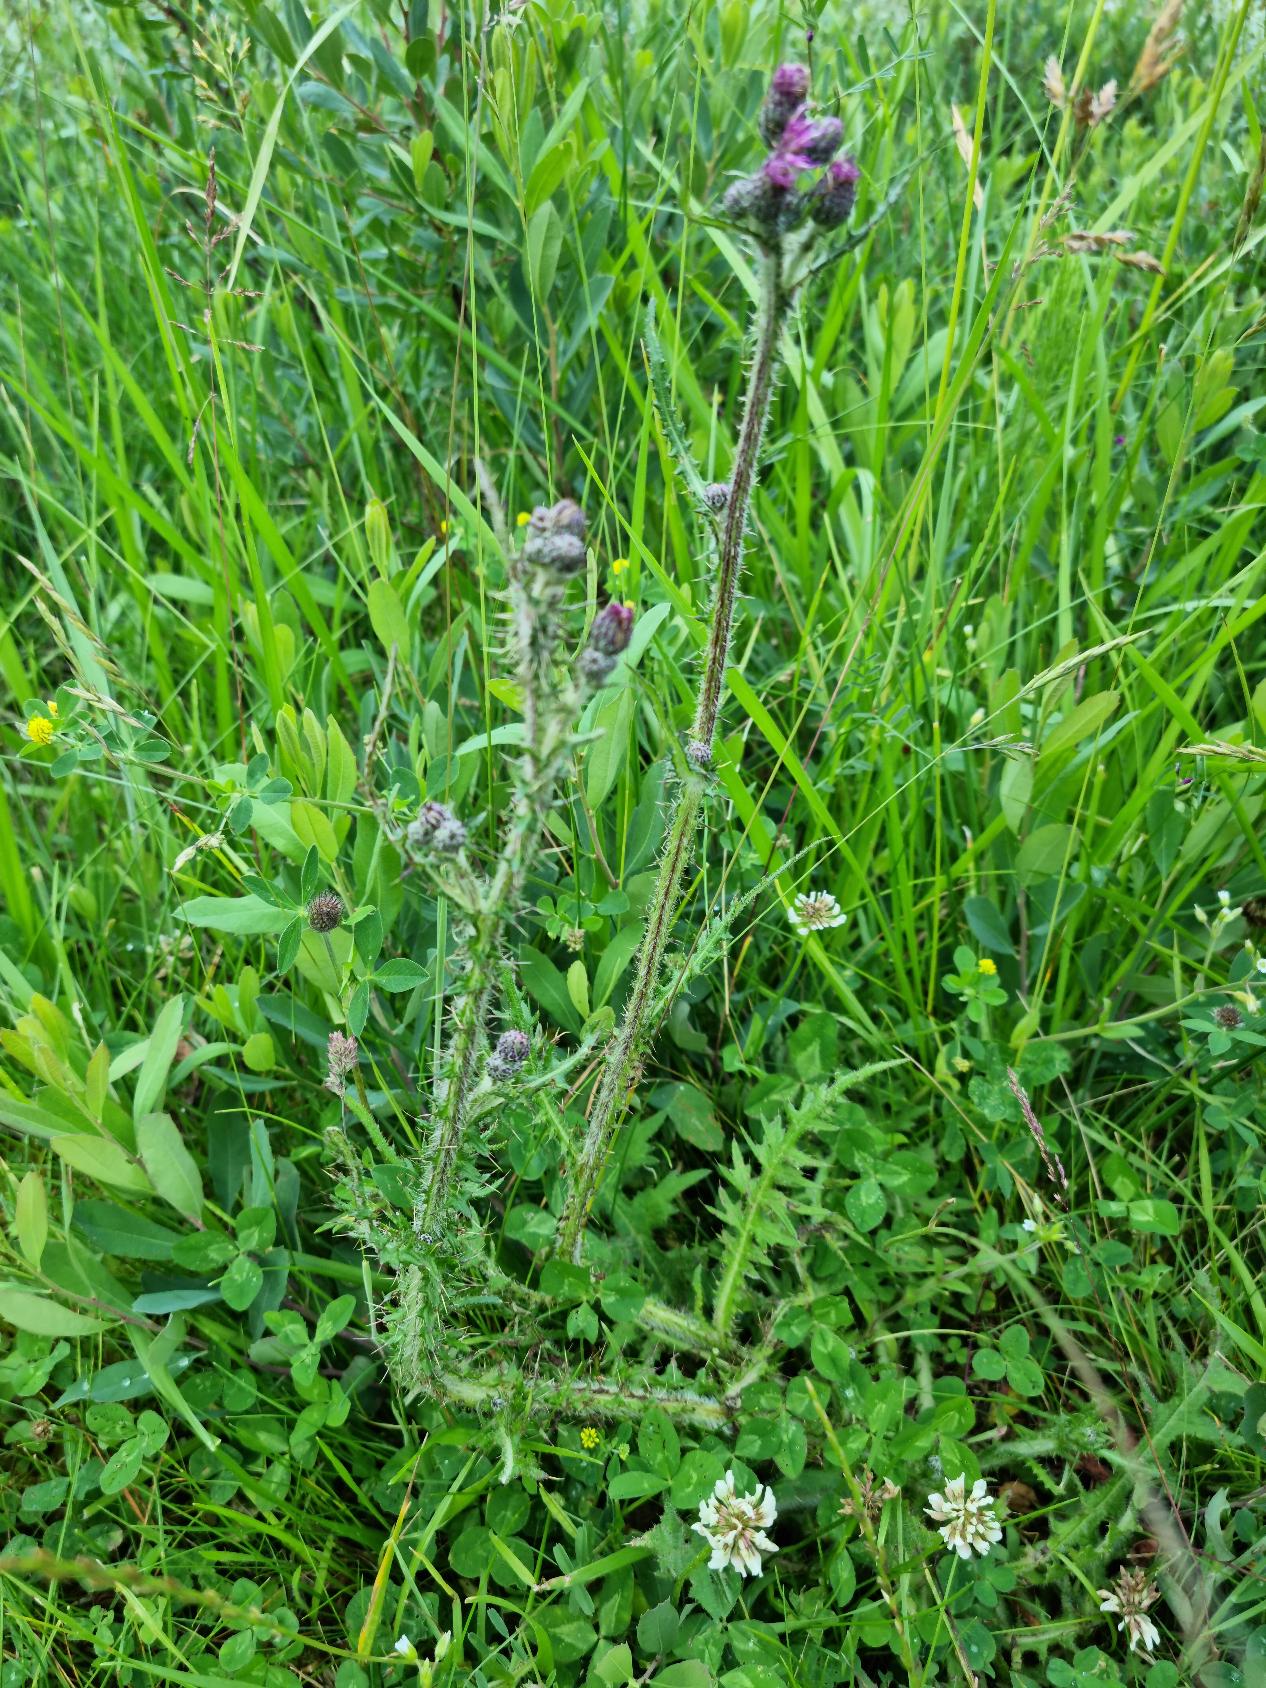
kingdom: Plantae
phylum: Tracheophyta
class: Magnoliopsida
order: Asterales
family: Asteraceae
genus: Cirsium
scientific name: Cirsium palustre
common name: Kær-tidsel
